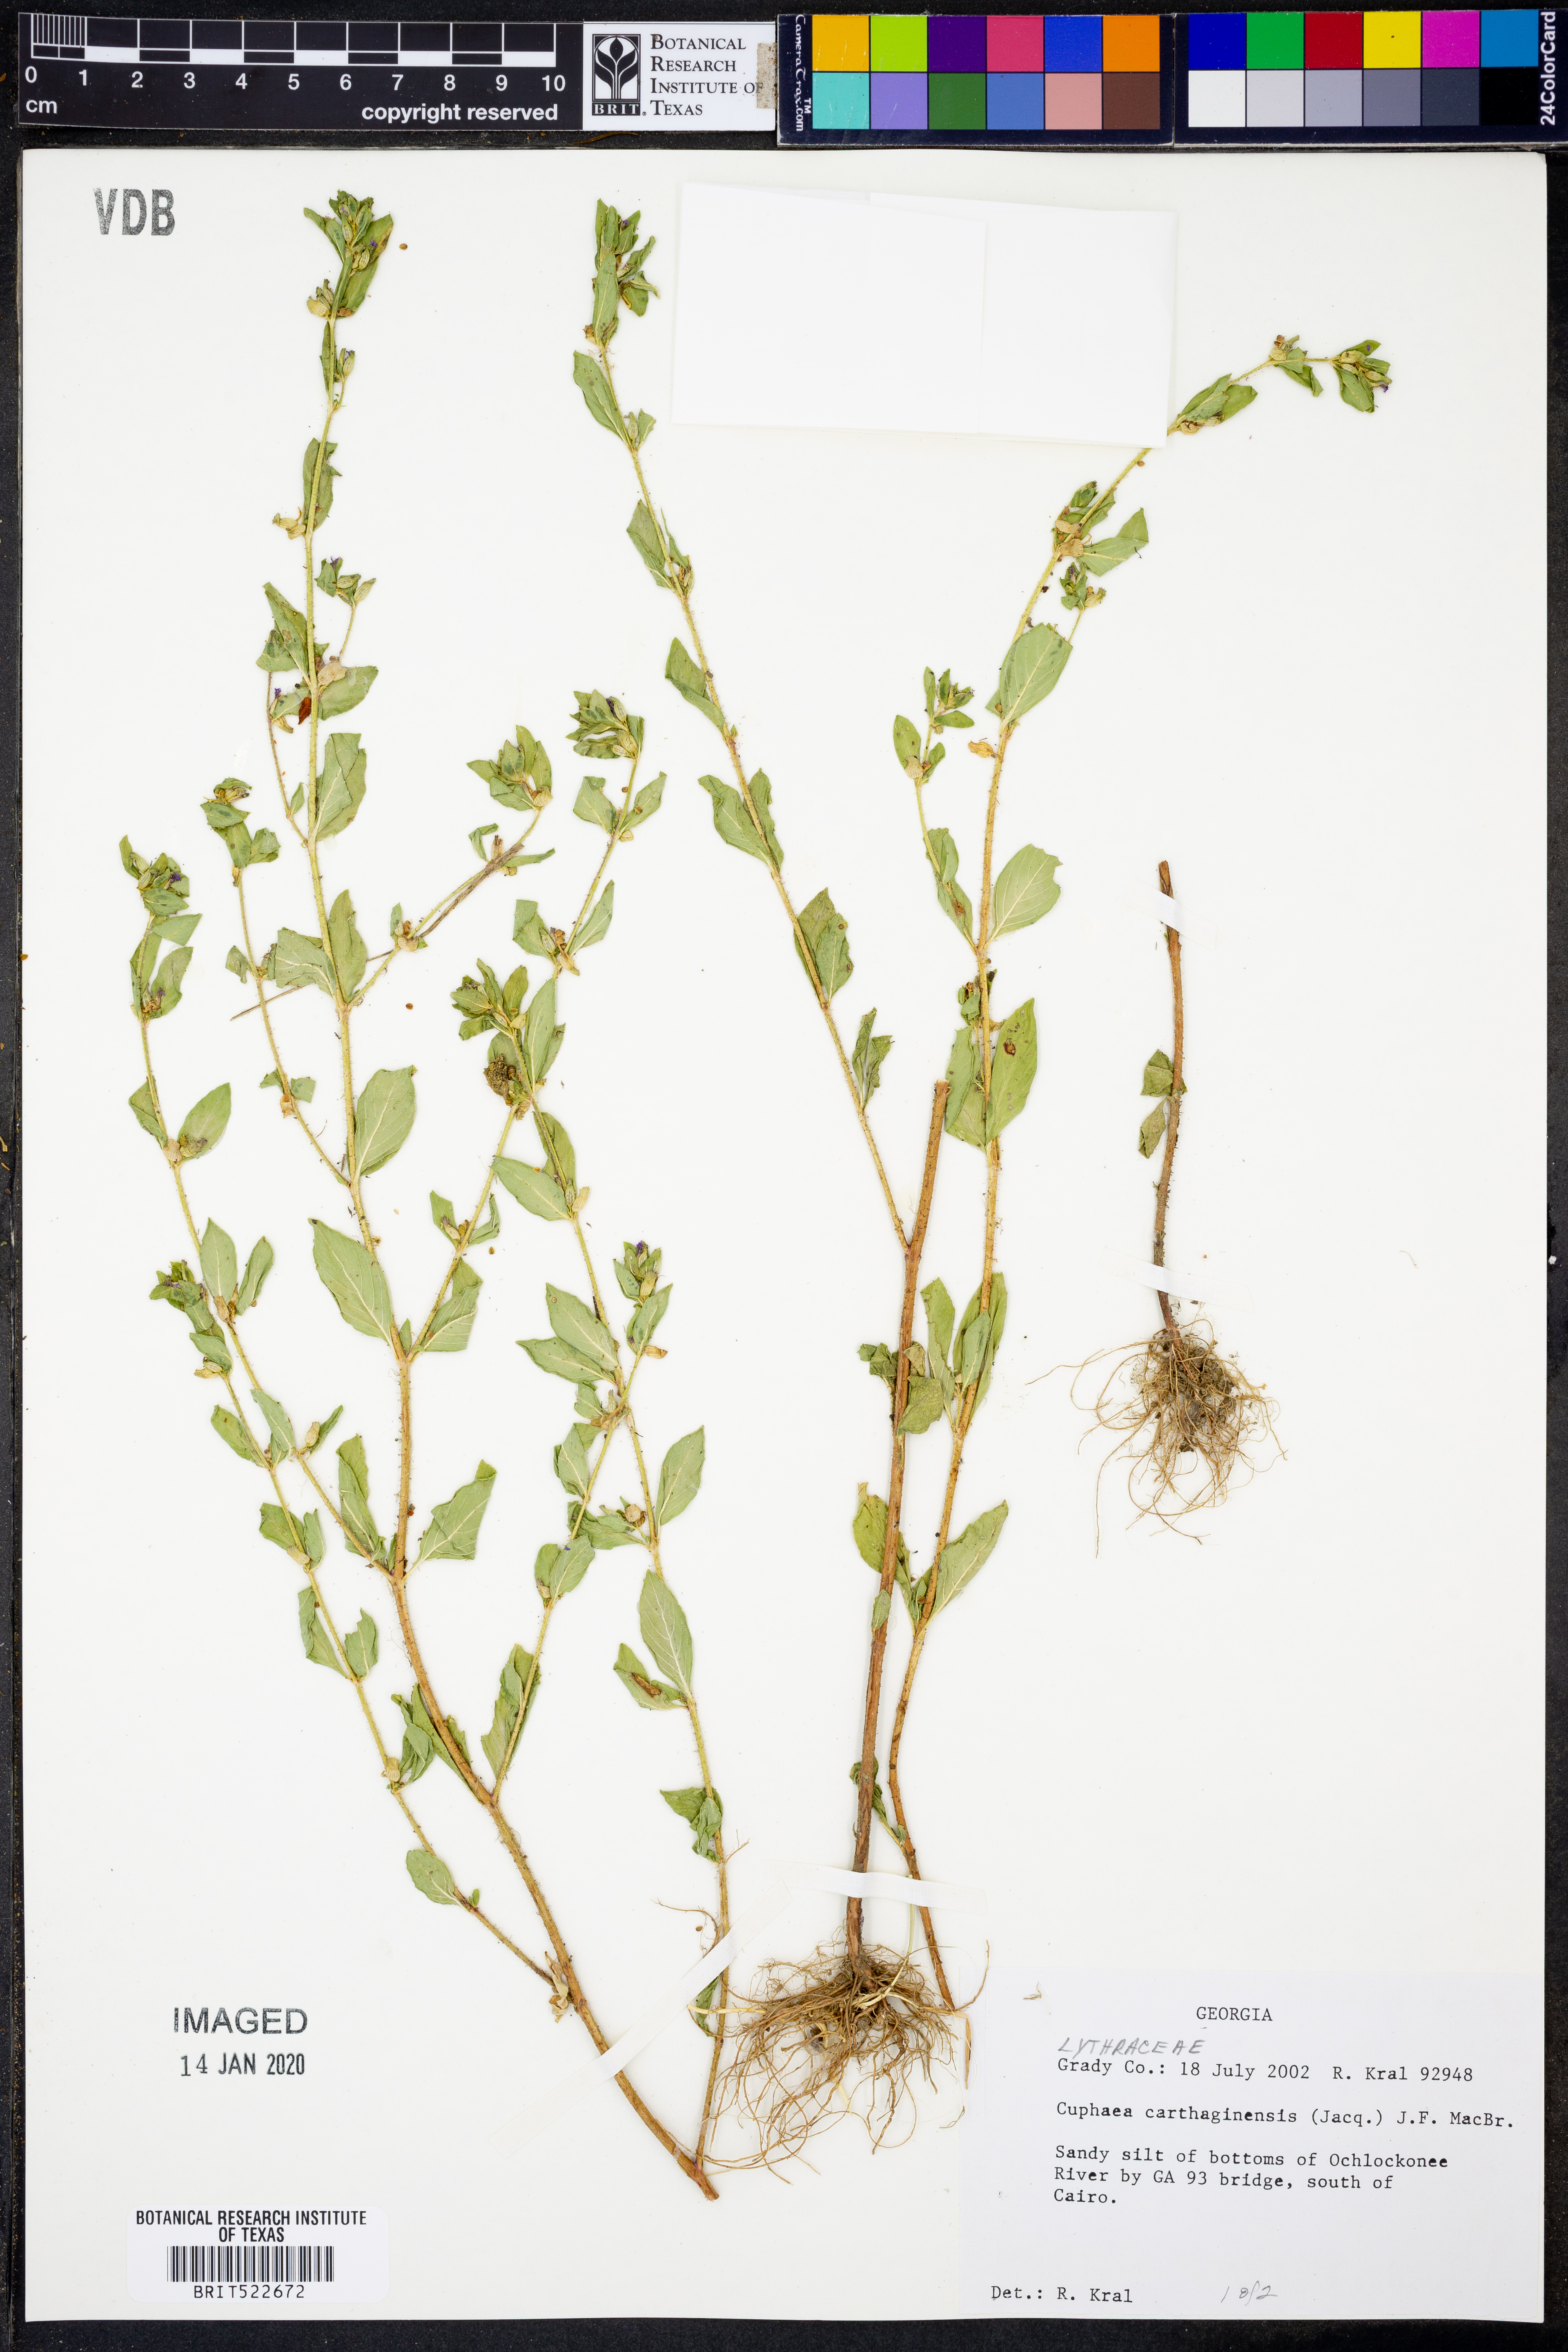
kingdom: Plantae
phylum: Tracheophyta
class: Magnoliopsida
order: Myrtales
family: Lythraceae
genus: Cuphea
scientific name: Cuphea carthagenensis
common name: Colombian waxweed
